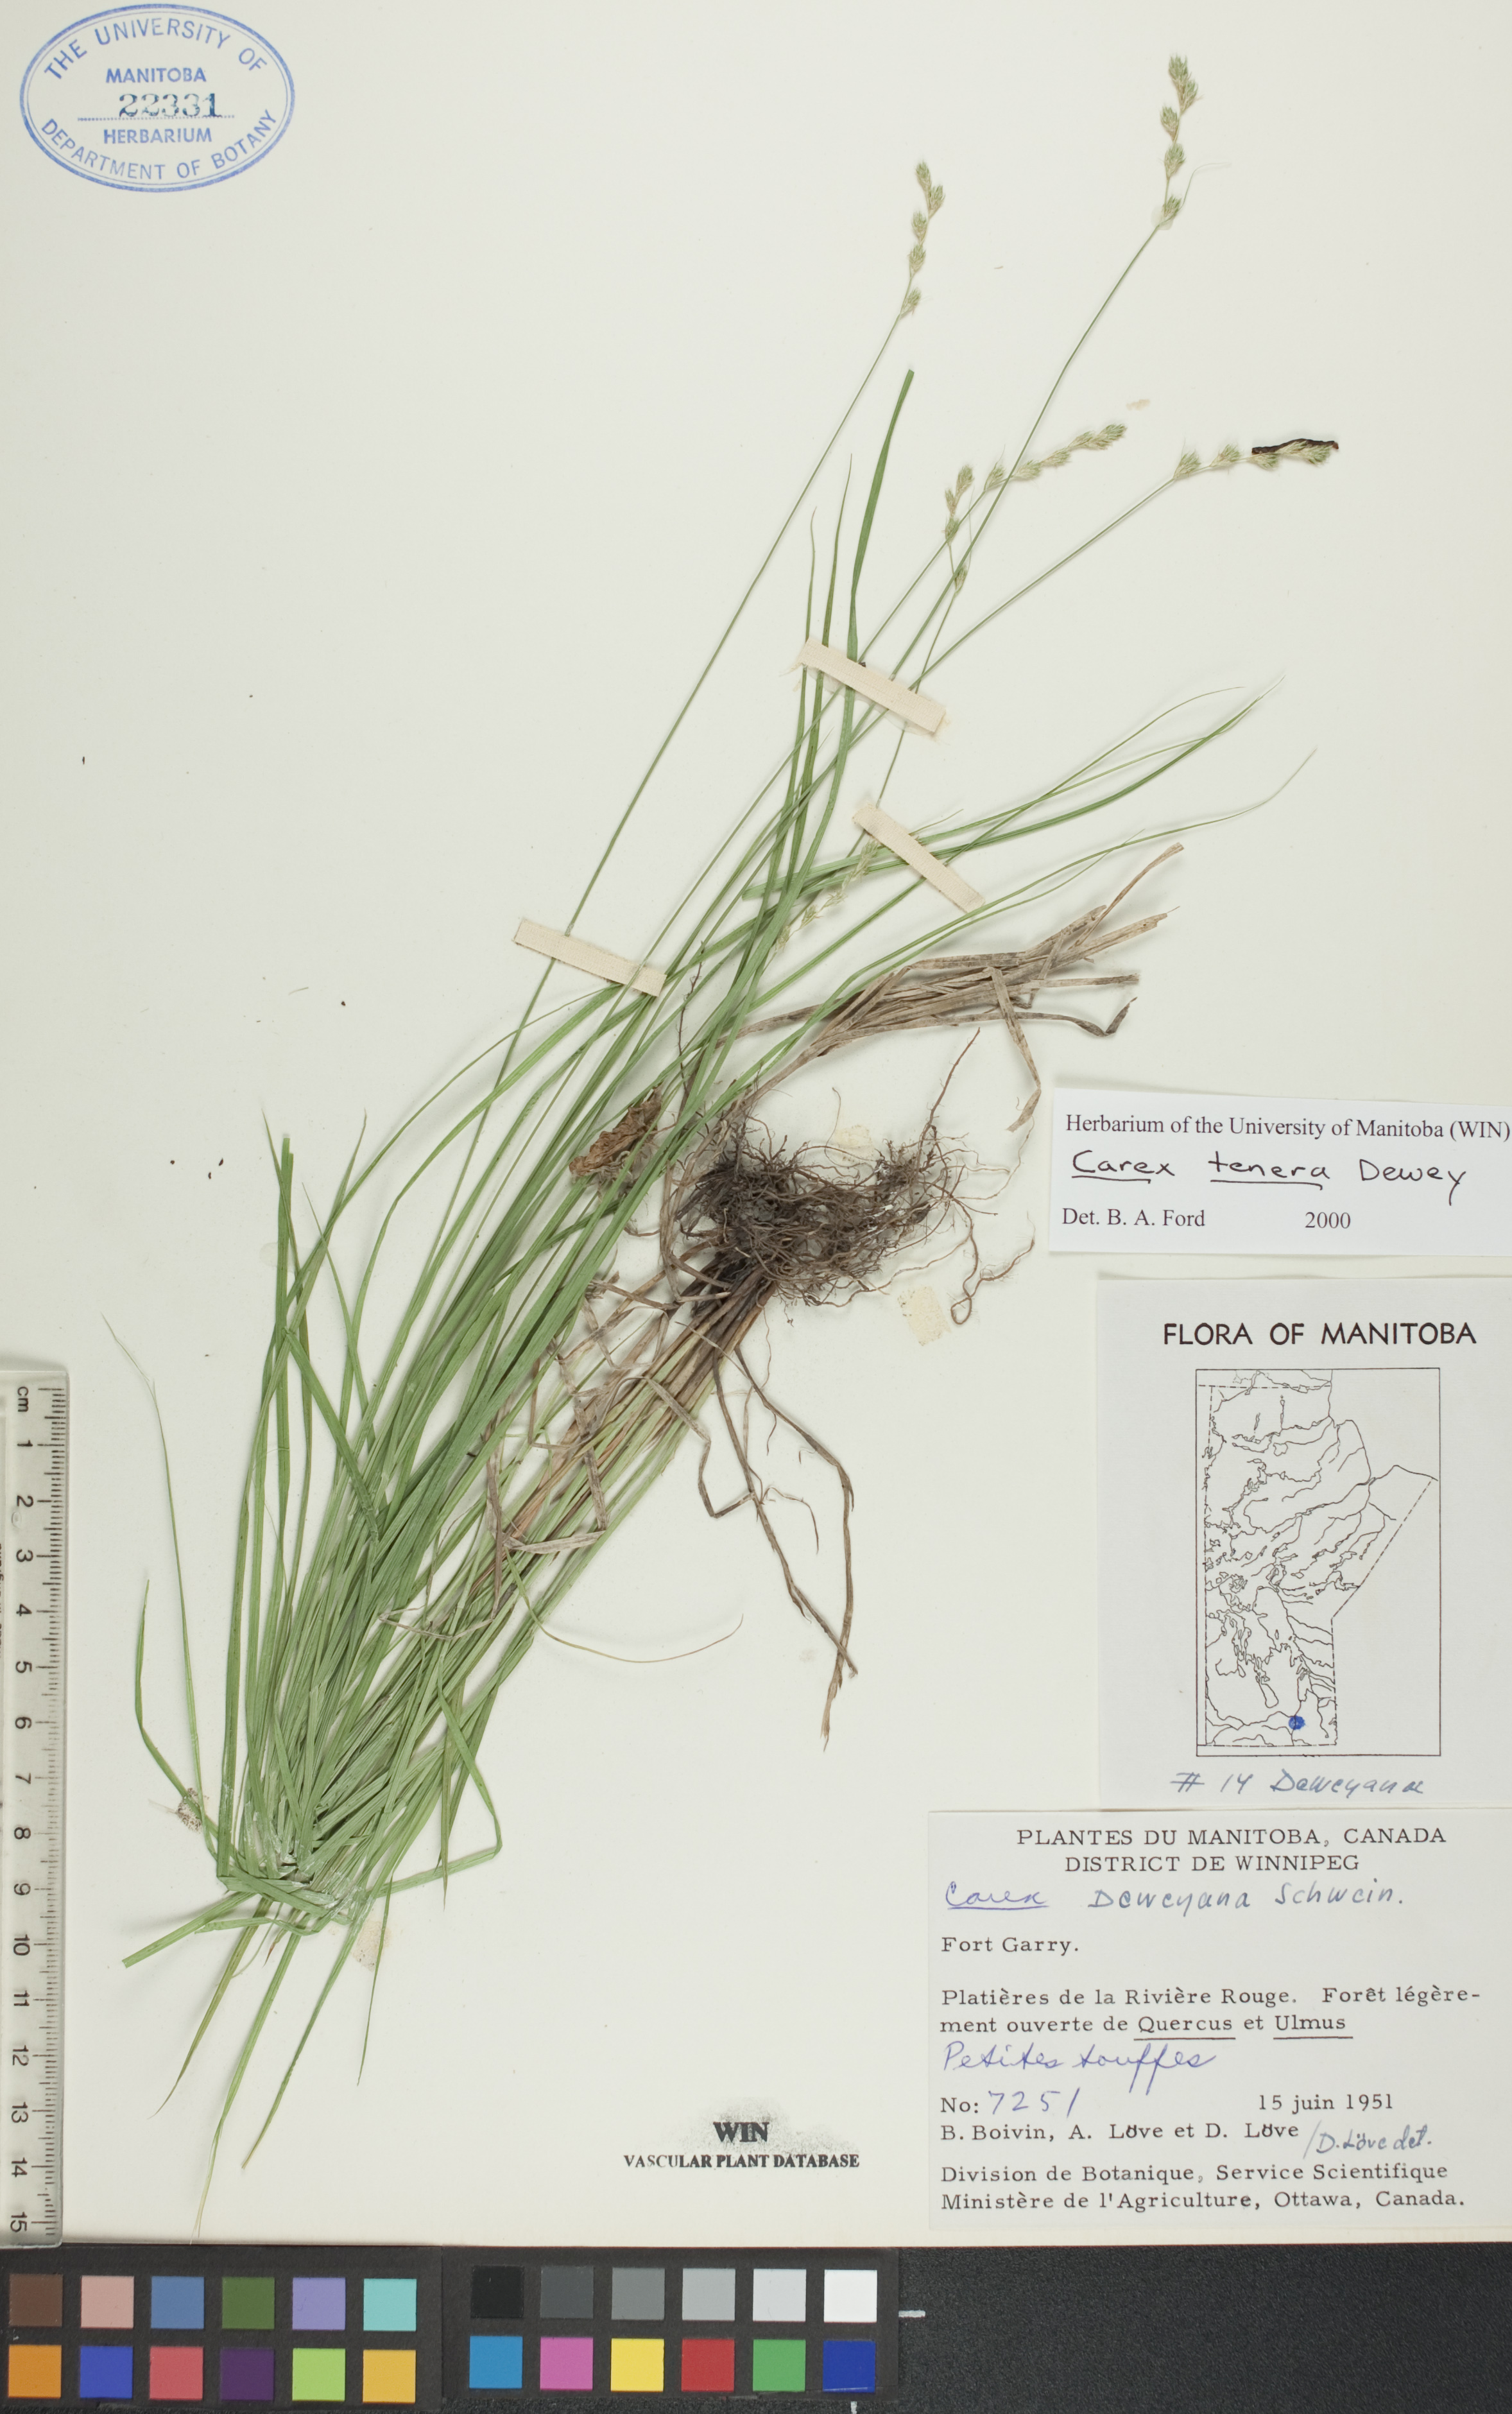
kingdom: Plantae
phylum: Tracheophyta
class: Liliopsida
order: Poales
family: Cyperaceae
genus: Carex
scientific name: Carex tenera
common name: Broad-fruited sedge
